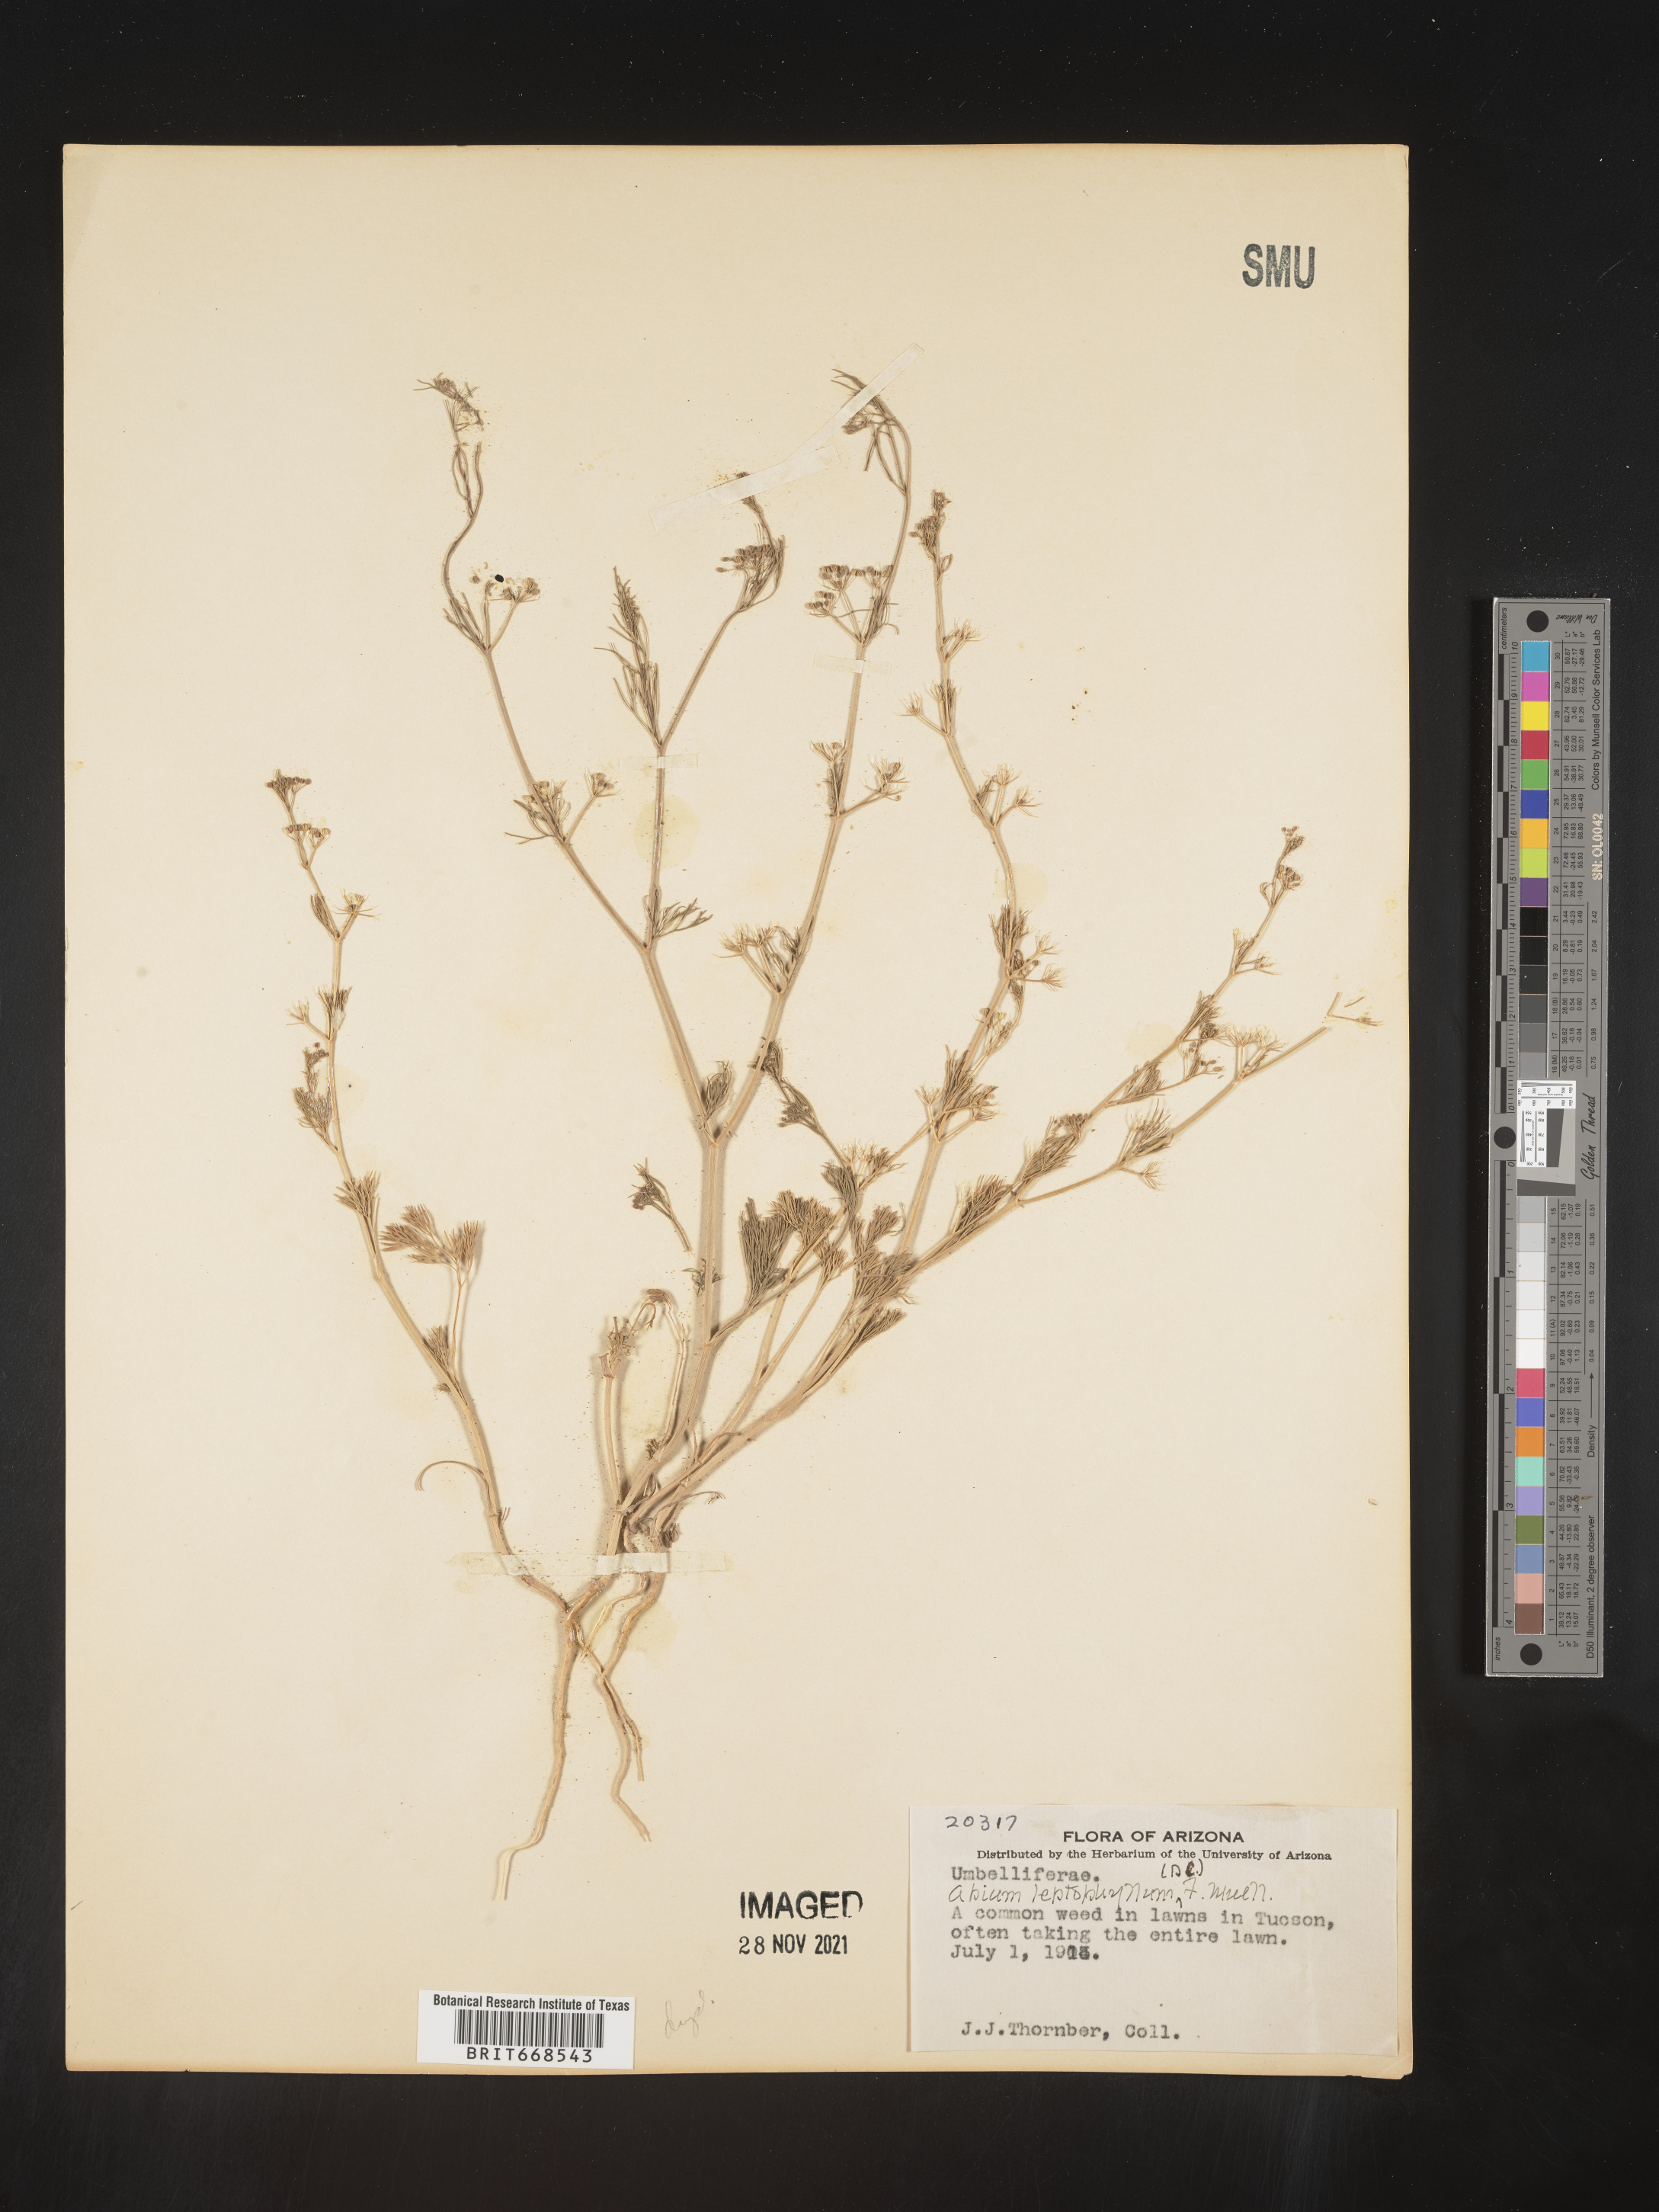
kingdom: Plantae
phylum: Tracheophyta
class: Magnoliopsida
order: Apiales
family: Apiaceae
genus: Cyclospermum
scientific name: Cyclospermum leptophyllum
